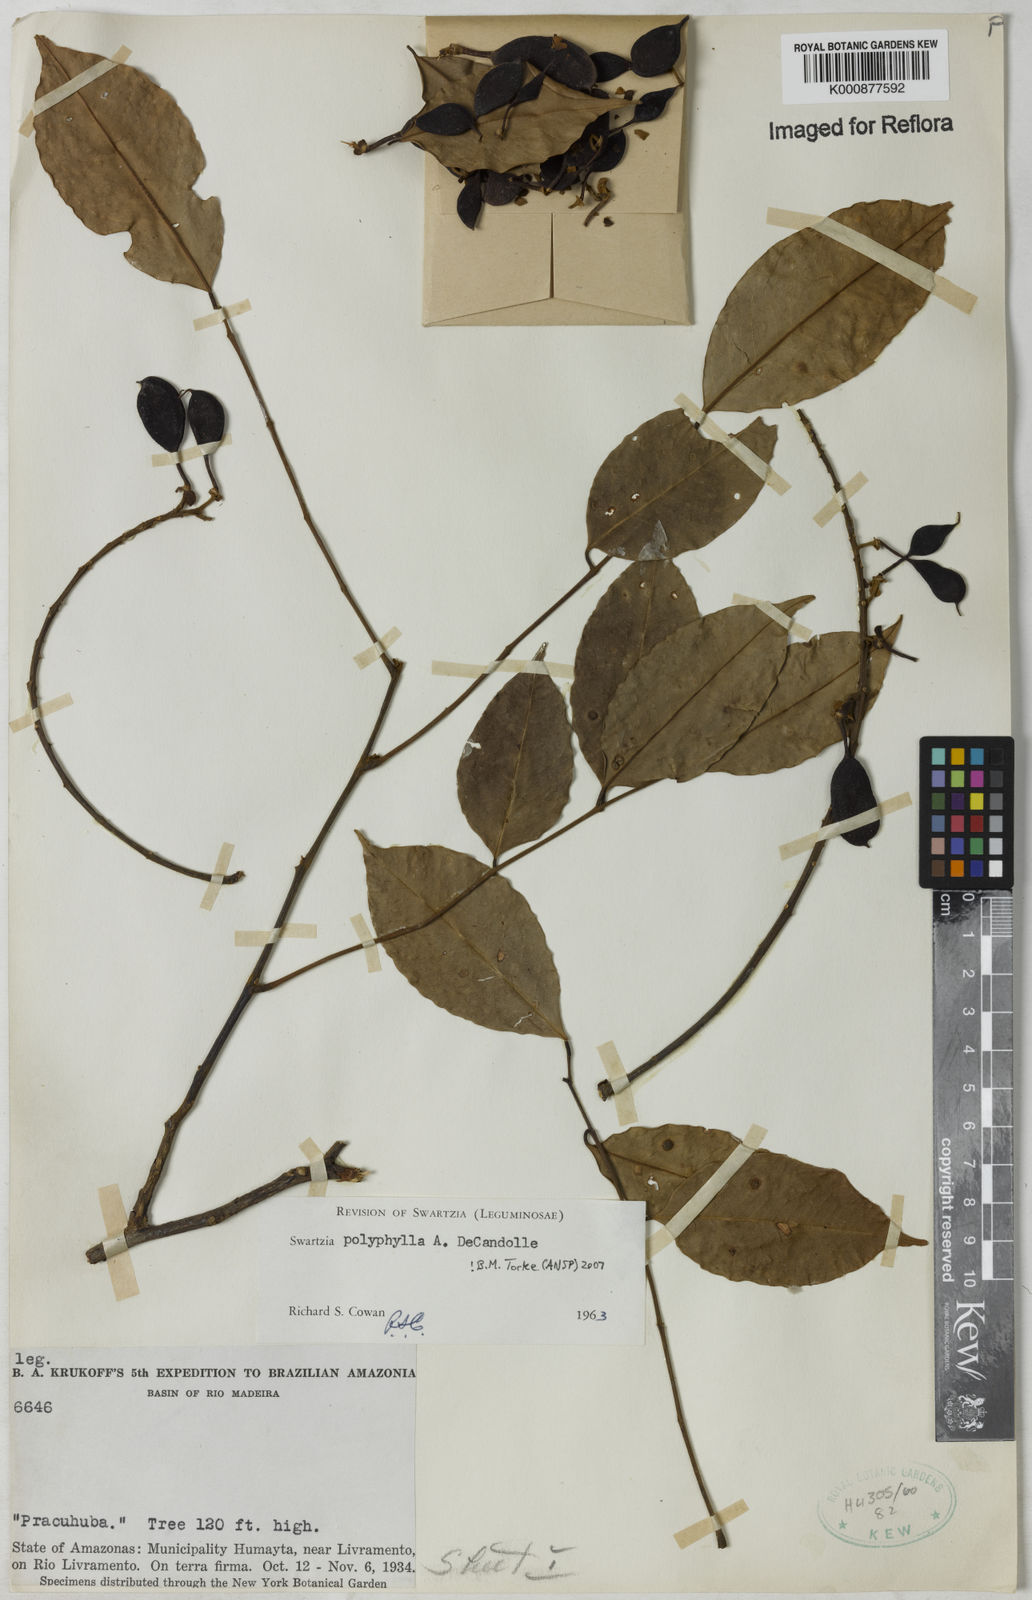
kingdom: Plantae
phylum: Tracheophyta
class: Magnoliopsida
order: Fabales
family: Fabaceae
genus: Swartzia
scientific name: Swartzia polyphylla
